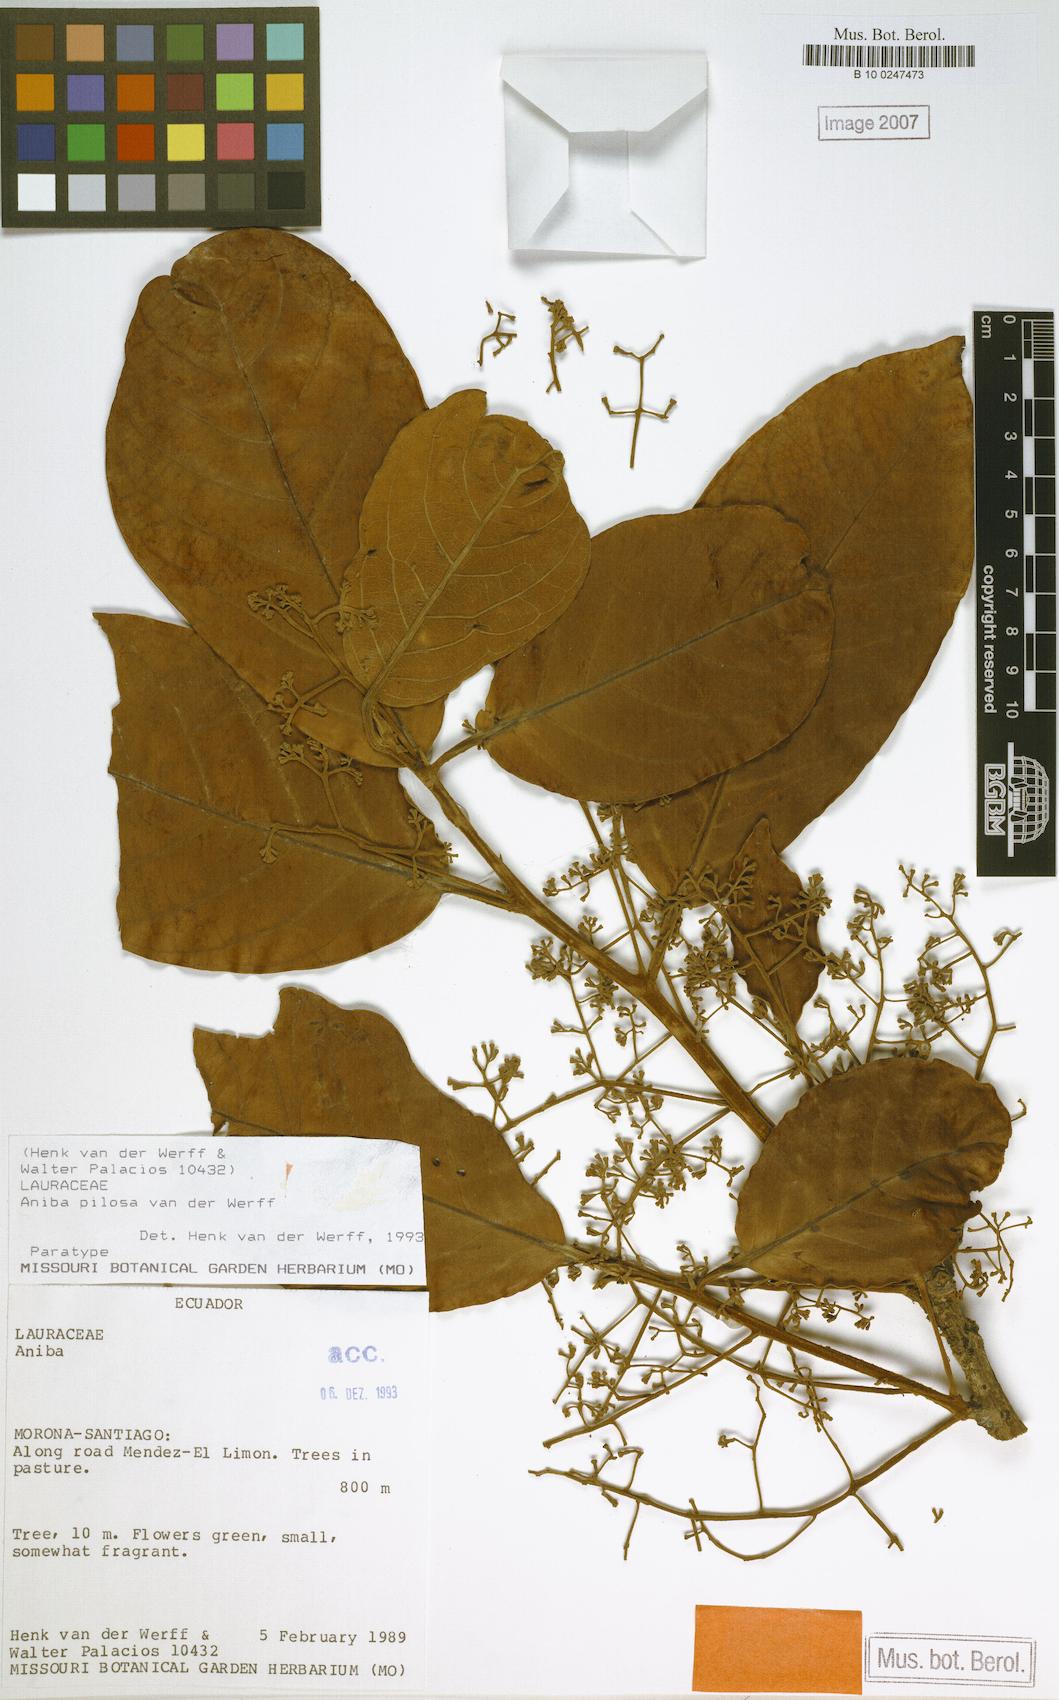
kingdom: Plantae
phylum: Tracheophyta
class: Magnoliopsida
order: Laurales
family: Lauraceae
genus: Aniba
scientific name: Aniba pilosa
